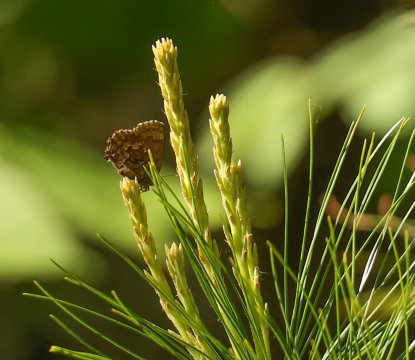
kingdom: Animalia
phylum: Arthropoda
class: Insecta
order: Lepidoptera
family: Lycaenidae
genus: Incisalia
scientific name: Incisalia niphon
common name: Eastern Pine Elfin
